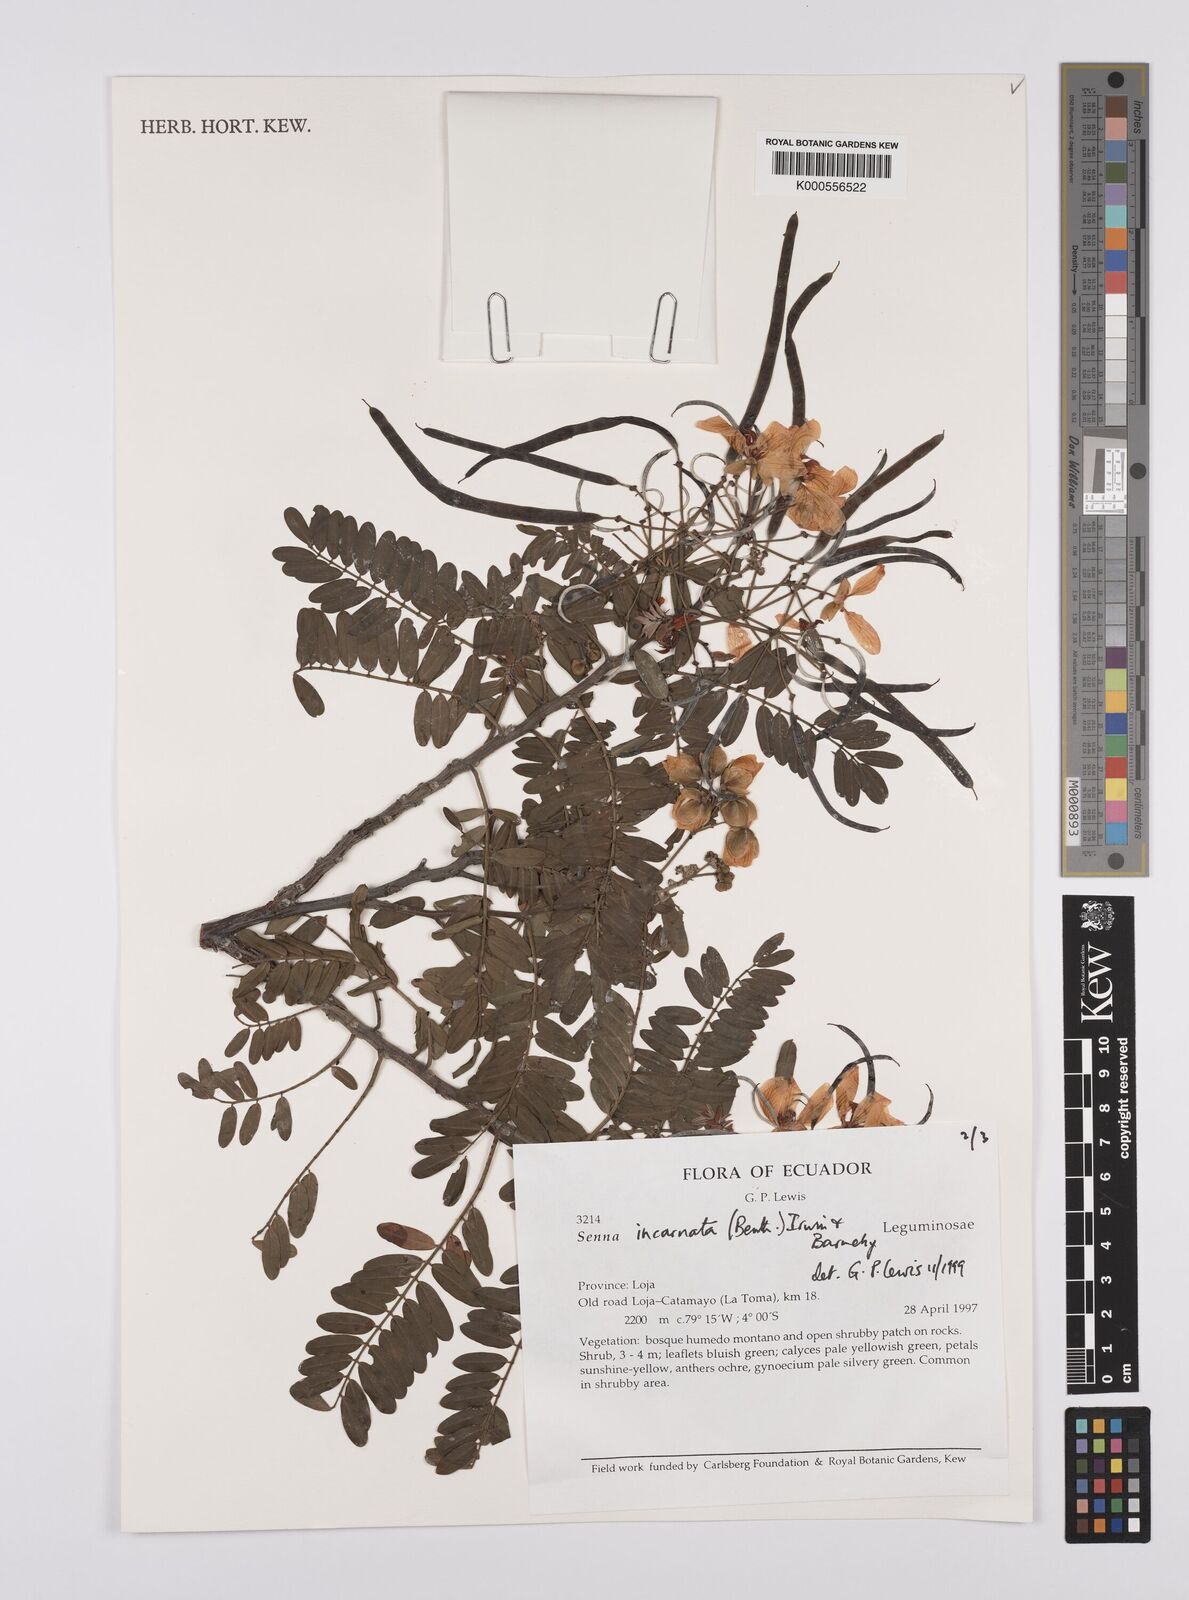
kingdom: Plantae
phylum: Tracheophyta
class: Magnoliopsida
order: Fabales
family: Fabaceae
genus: Senna
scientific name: Senna incarnata
